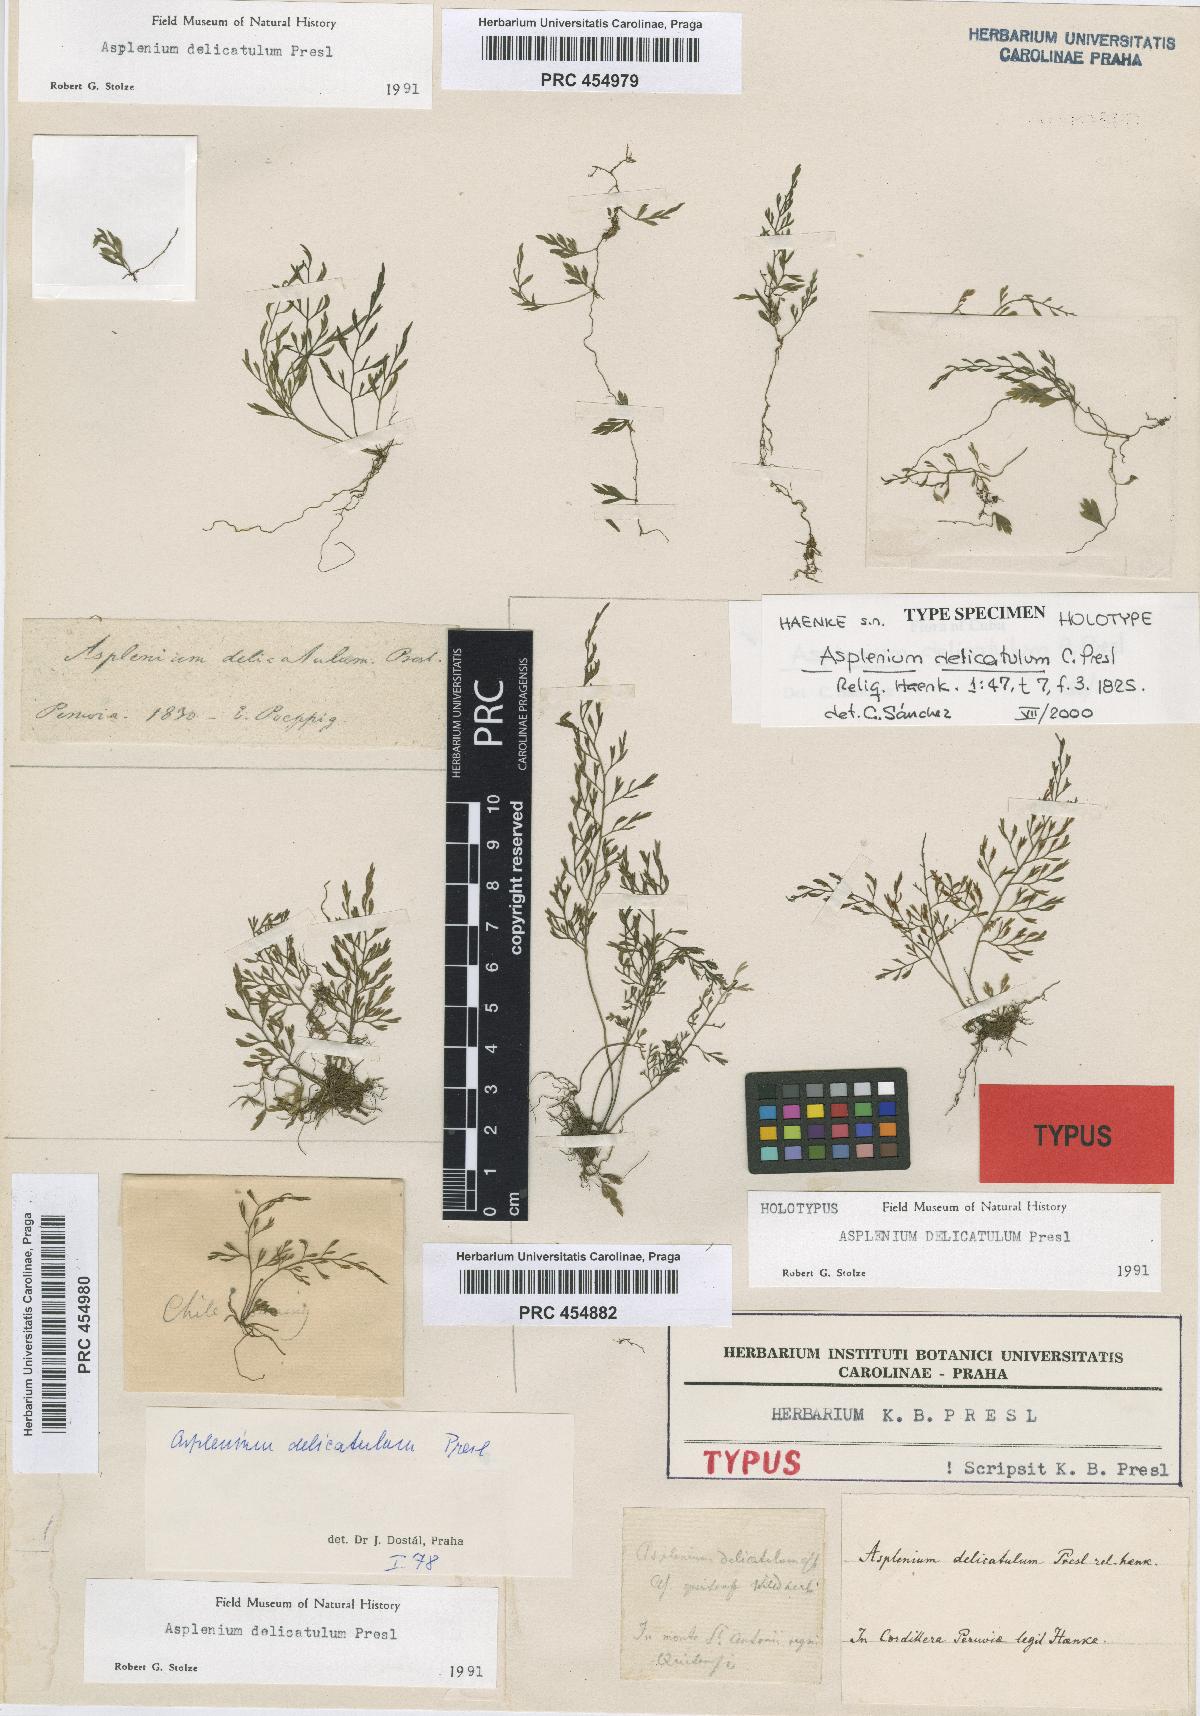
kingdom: Plantae
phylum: Tracheophyta
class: Polypodiopsida
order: Polypodiales
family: Aspleniaceae
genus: Asplenium
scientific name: Asplenium delicatulum
